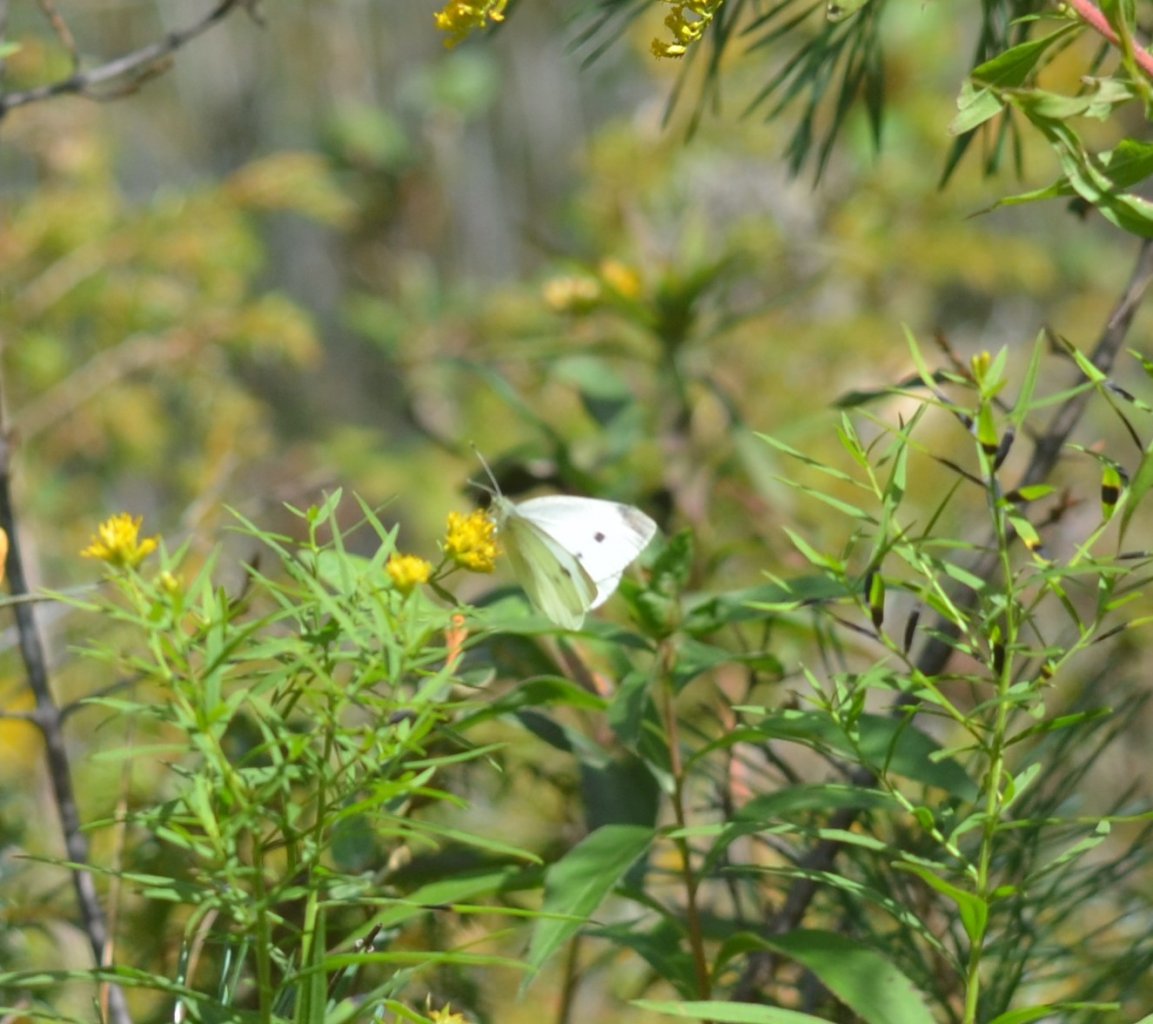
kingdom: Animalia
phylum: Arthropoda
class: Insecta
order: Lepidoptera
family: Pieridae
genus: Pieris
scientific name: Pieris rapae
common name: Cabbage White
